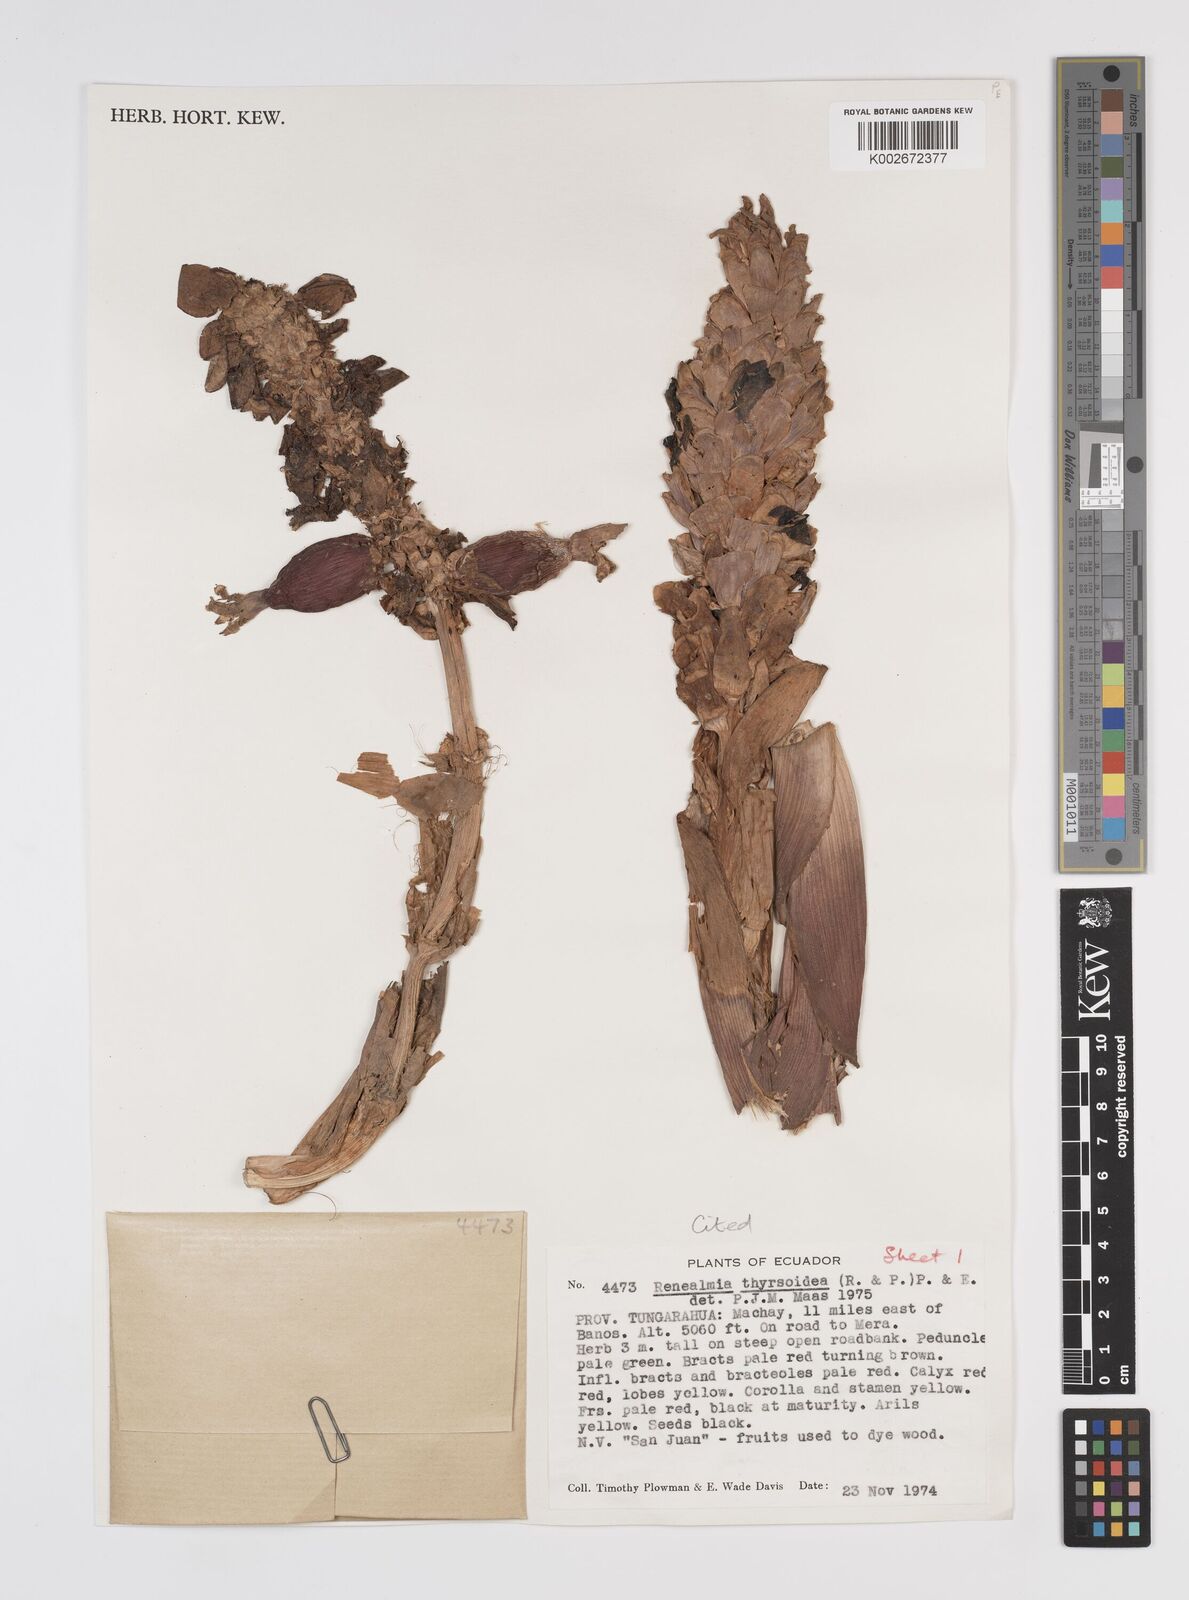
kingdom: Plantae
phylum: Tracheophyta
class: Liliopsida
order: Zingiberales
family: Zingiberaceae
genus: Renealmia
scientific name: Renealmia thyrsoidea
